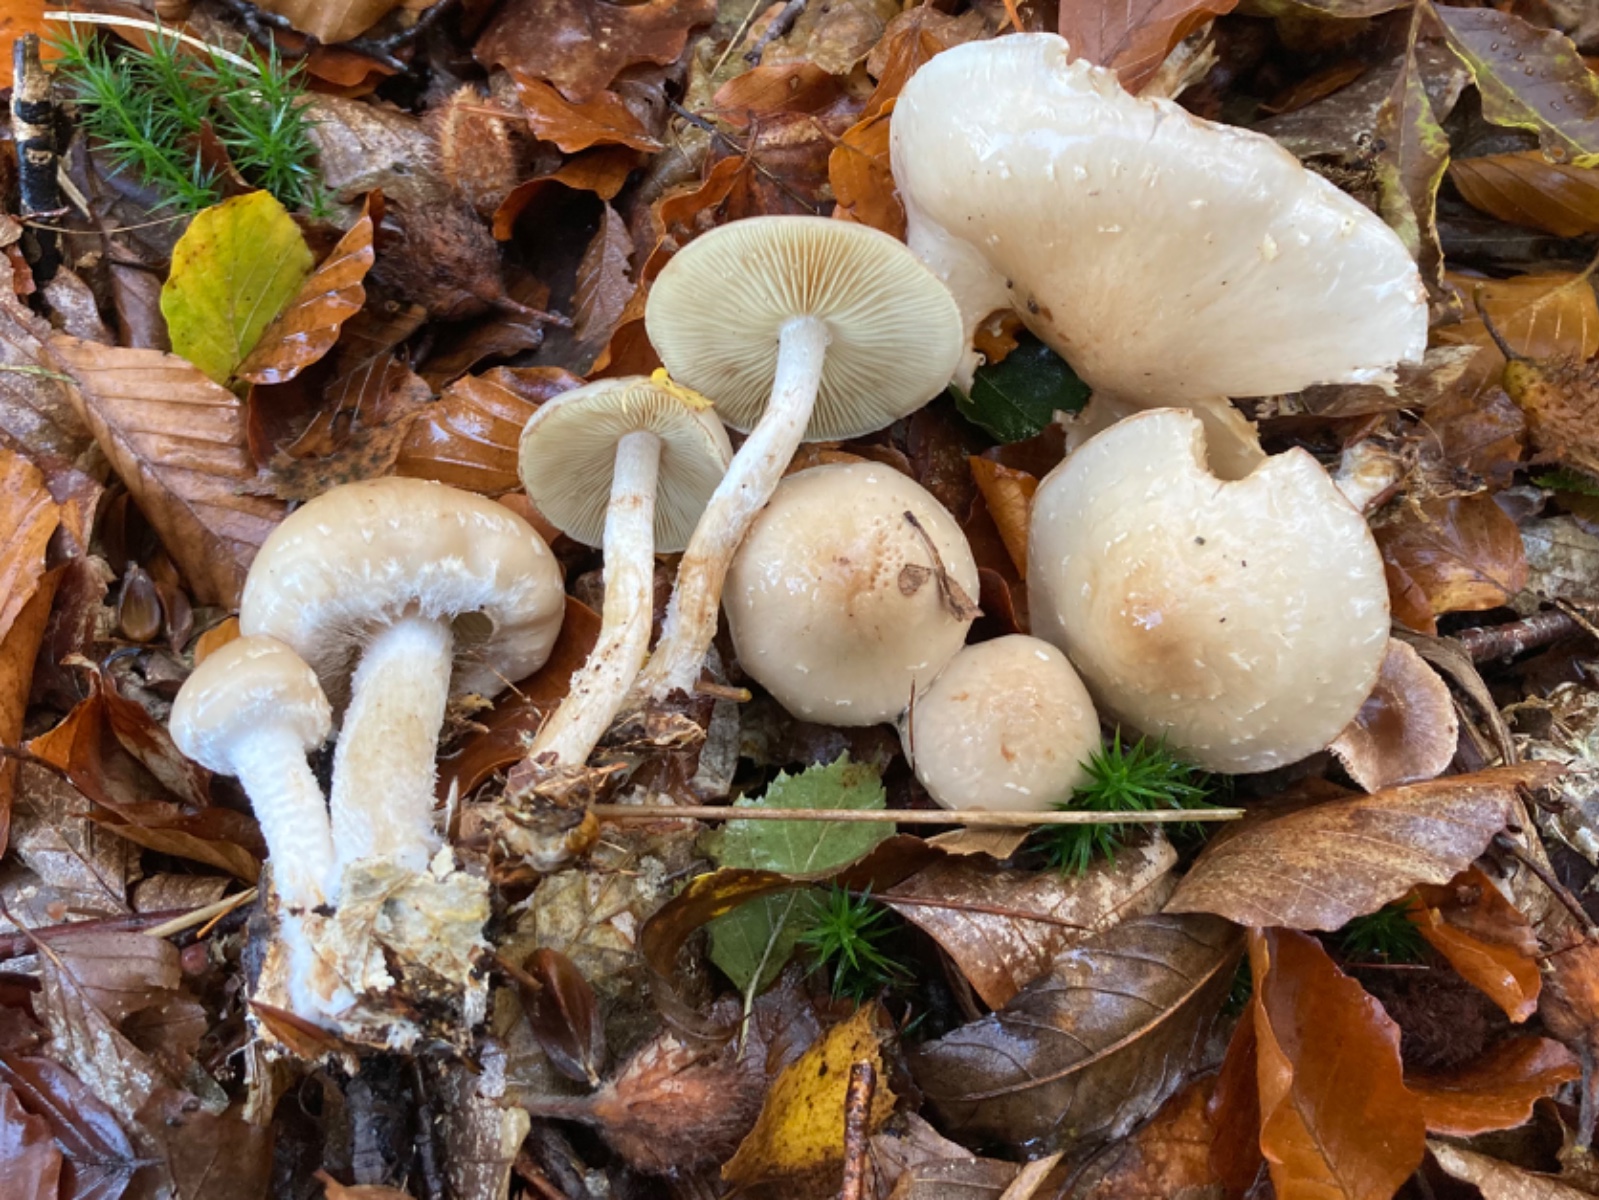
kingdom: Fungi
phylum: Basidiomycota
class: Agaricomycetes
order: Agaricales
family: Strophariaceae
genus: Pholiota
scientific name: Pholiota lenta
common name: løv-skælhat
